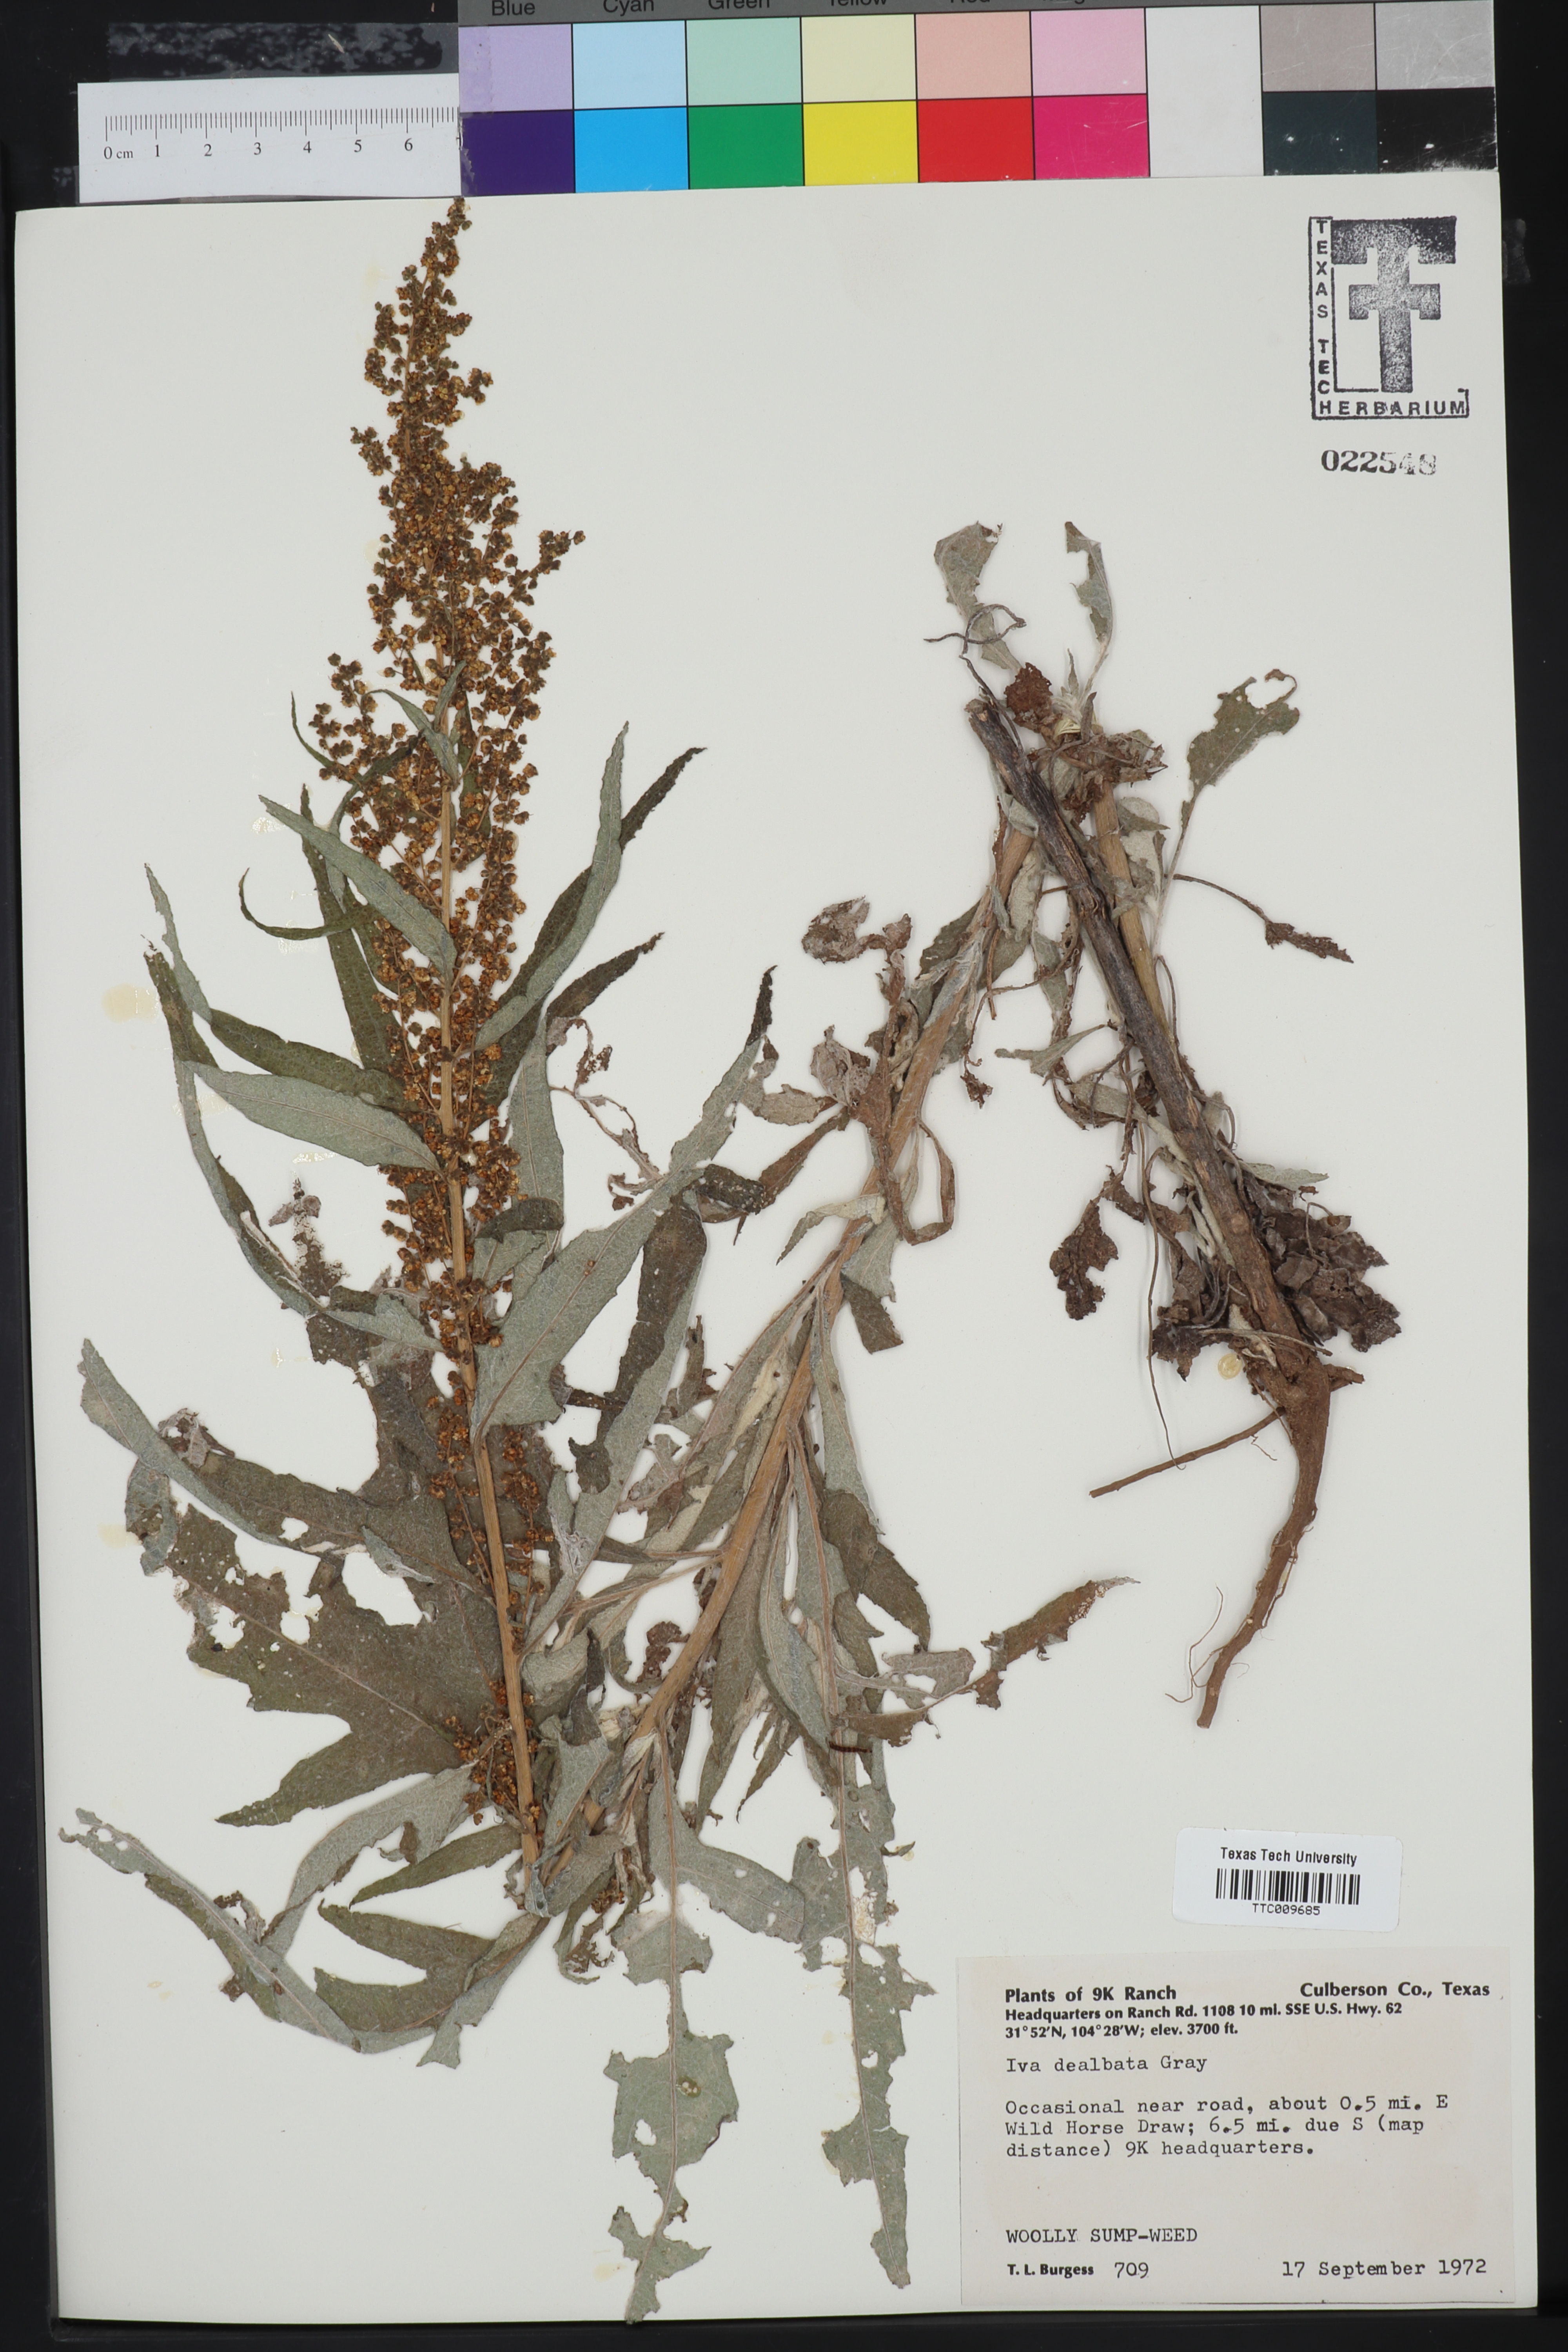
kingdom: Plantae
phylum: Tracheophyta
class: Magnoliopsida
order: Asterales
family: Asteraceae
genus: Euphrosyne
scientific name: Euphrosyne dealbata
